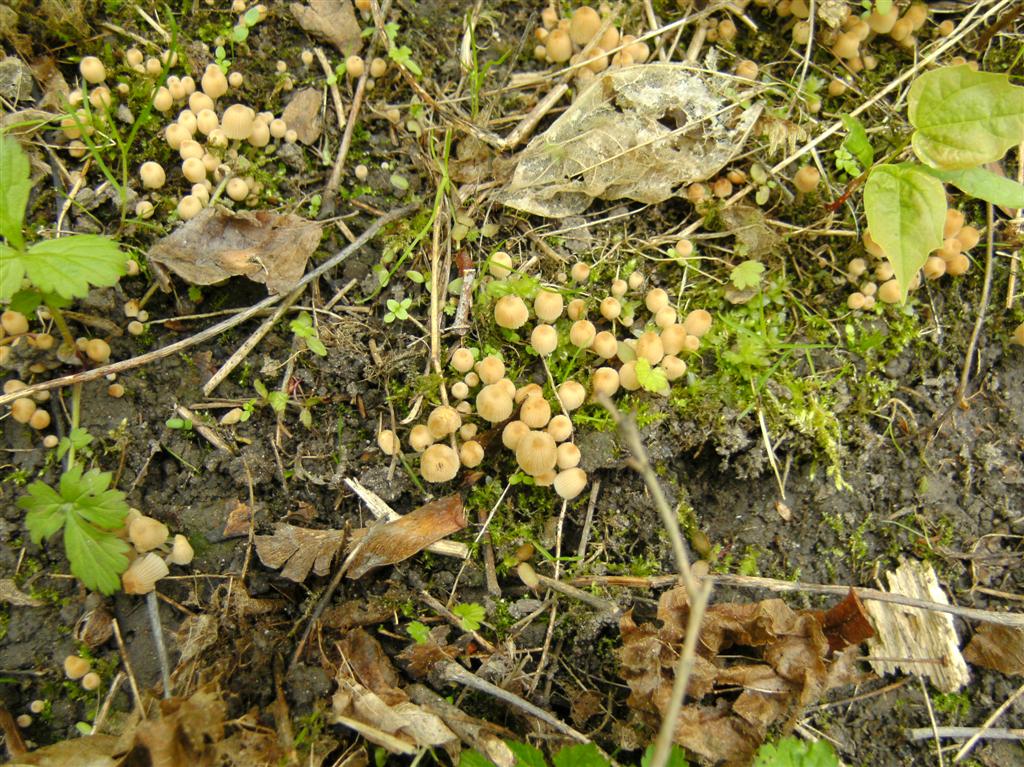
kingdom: Fungi
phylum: Basidiomycota
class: Agaricomycetes
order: Agaricales
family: Psathyrellaceae
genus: Coprinellus
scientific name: Coprinellus disseminatus
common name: bredsået blækhat
